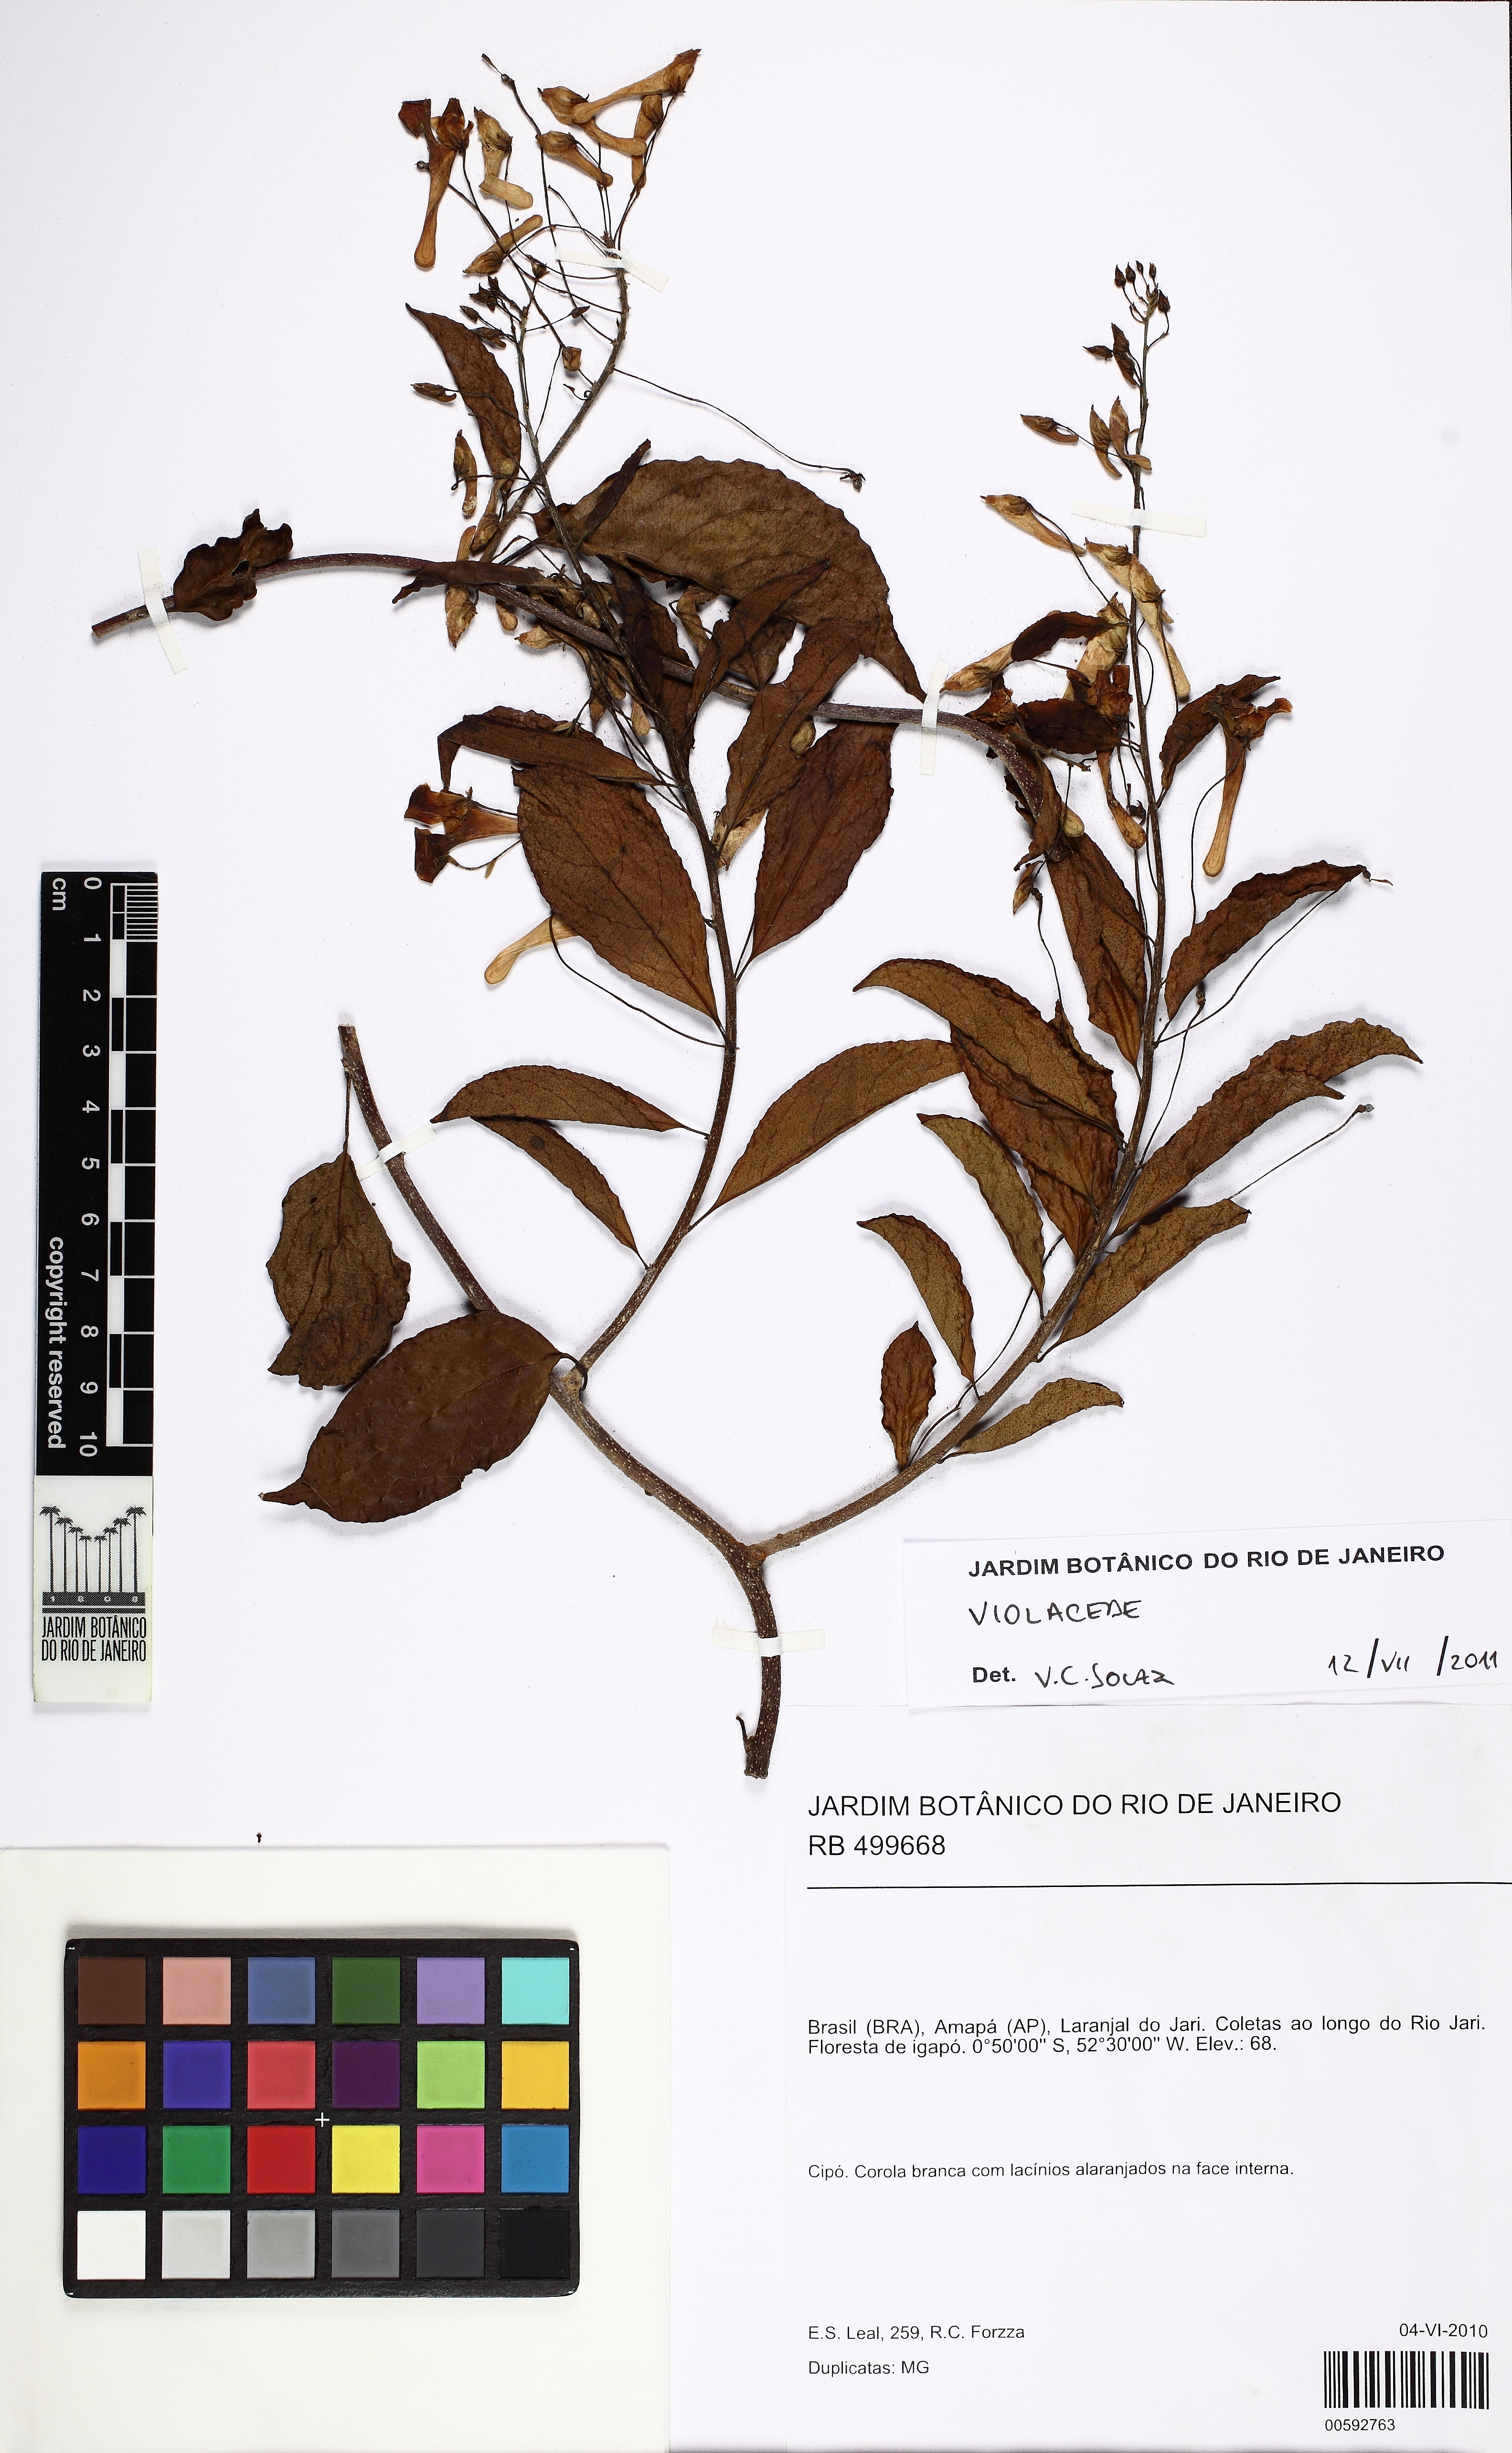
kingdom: Plantae
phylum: Tracheophyta
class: Magnoliopsida
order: Malpighiales
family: Violaceae
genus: Calyptrion
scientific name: Calyptrion
